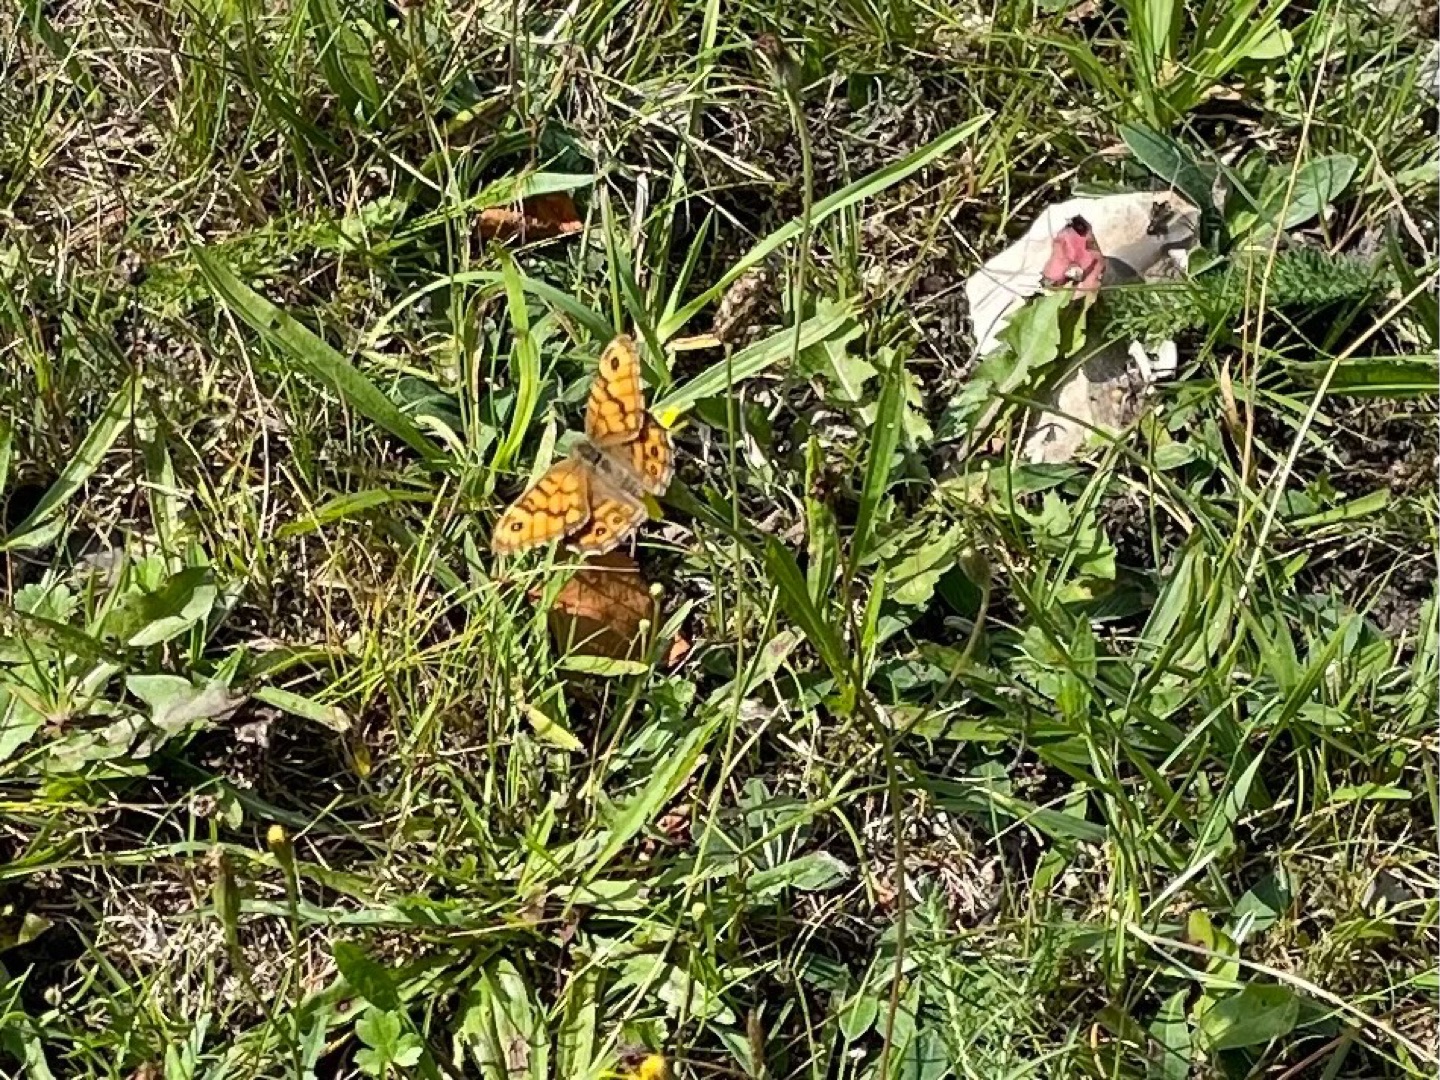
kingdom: Animalia
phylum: Arthropoda
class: Insecta
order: Lepidoptera
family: Nymphalidae
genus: Pararge
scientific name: Pararge Lasiommata megera
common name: Vejrandøje
